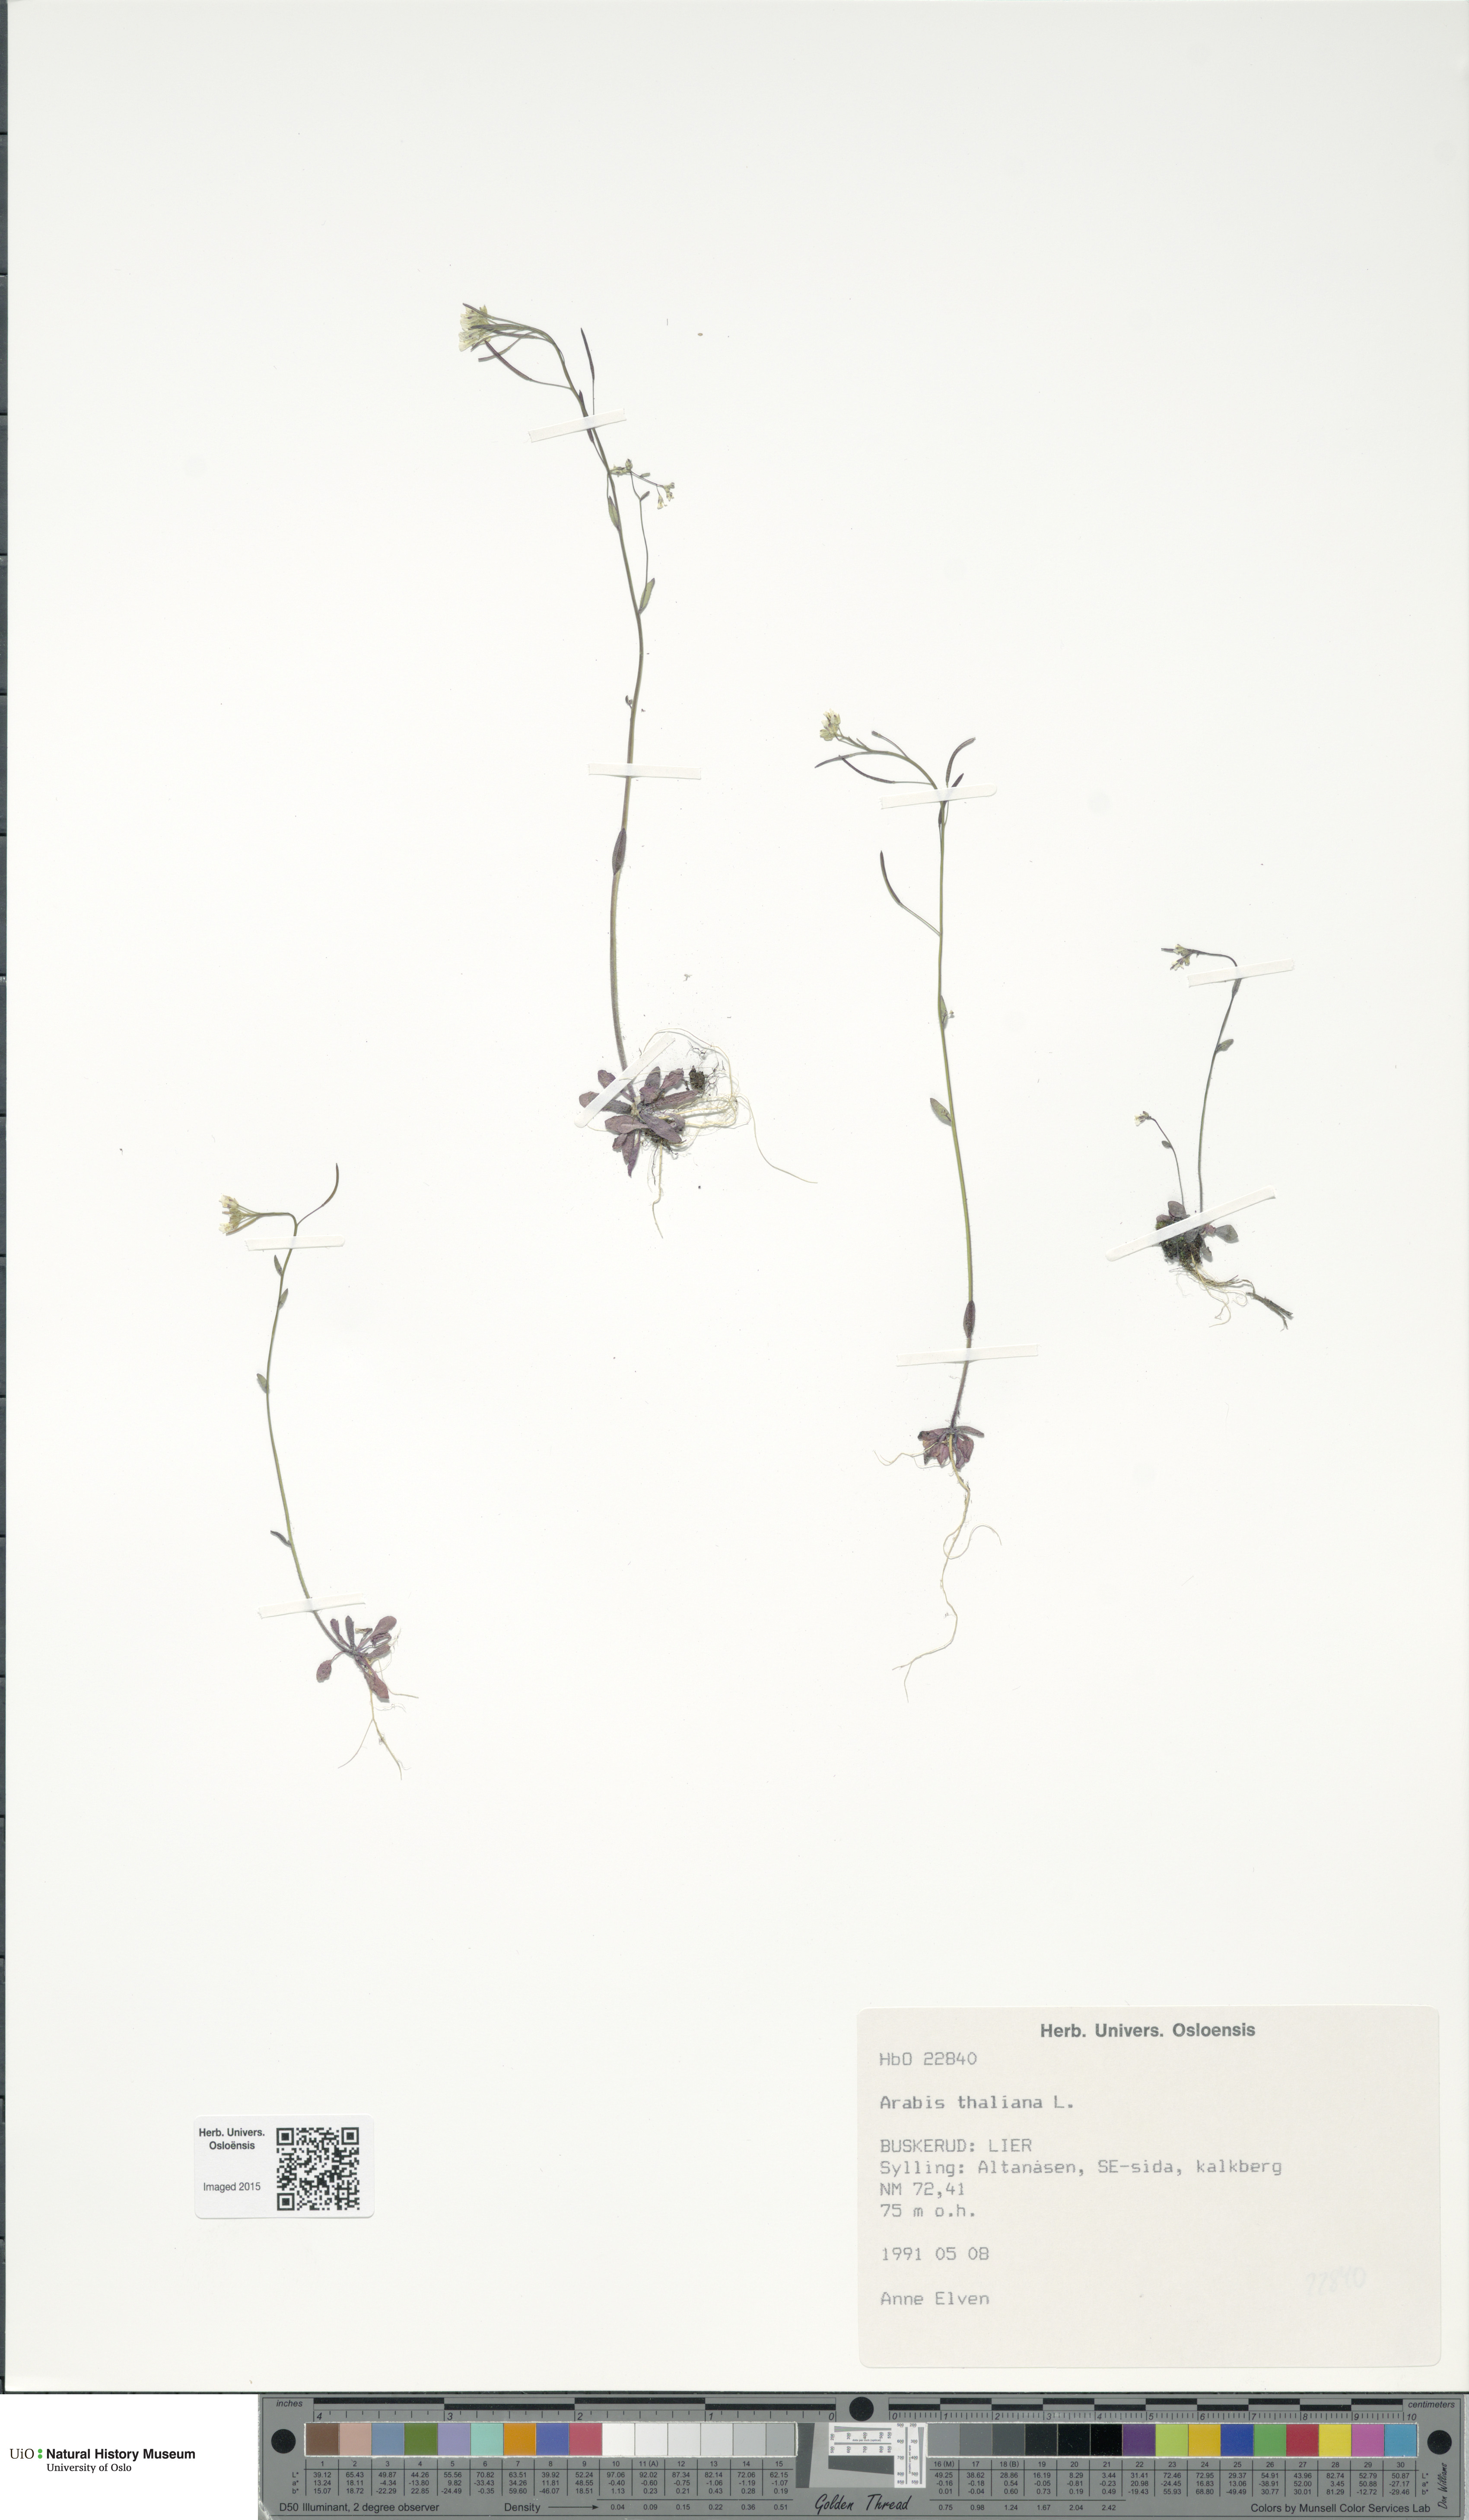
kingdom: Plantae
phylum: Tracheophyta
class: Magnoliopsida
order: Brassicales
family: Brassicaceae
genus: Arabidopsis
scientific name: Arabidopsis thaliana
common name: Thale cress
